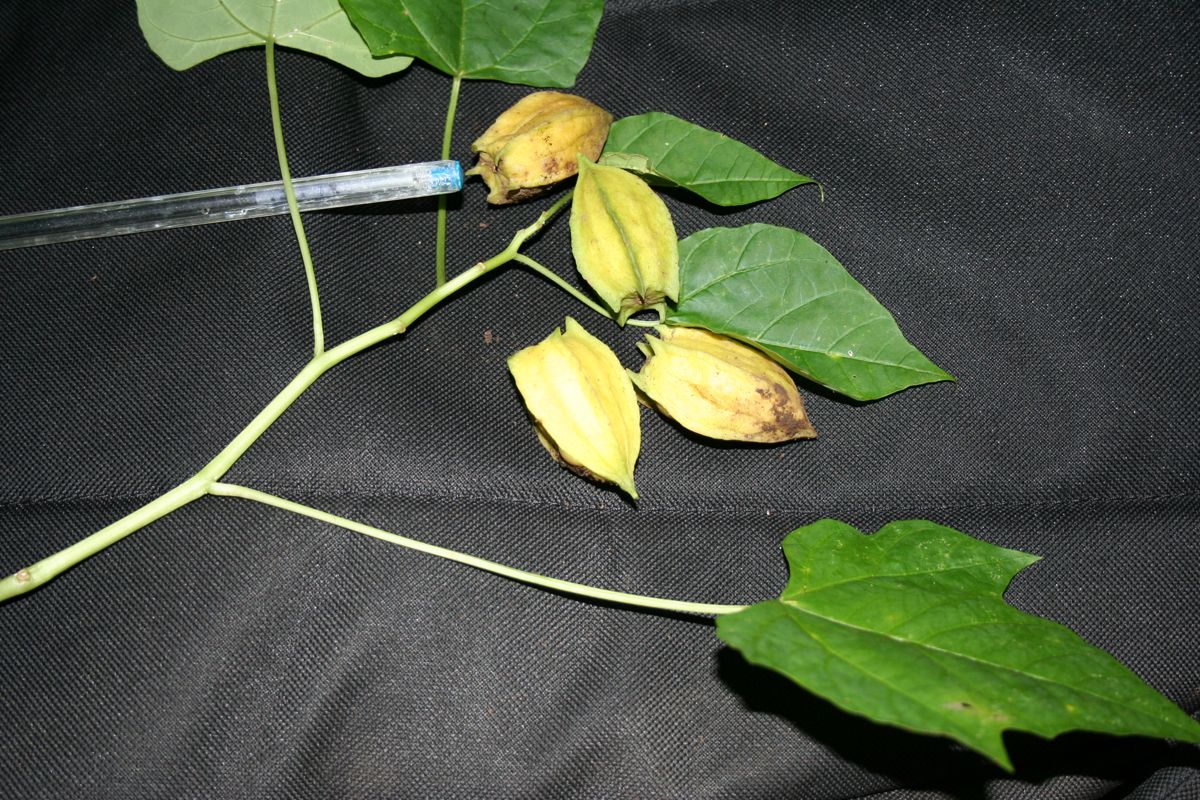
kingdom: Plantae
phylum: Tracheophyta
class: Magnoliopsida
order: Brassicales
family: Caricaceae
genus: Jarilla
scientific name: Jarilla chocola
